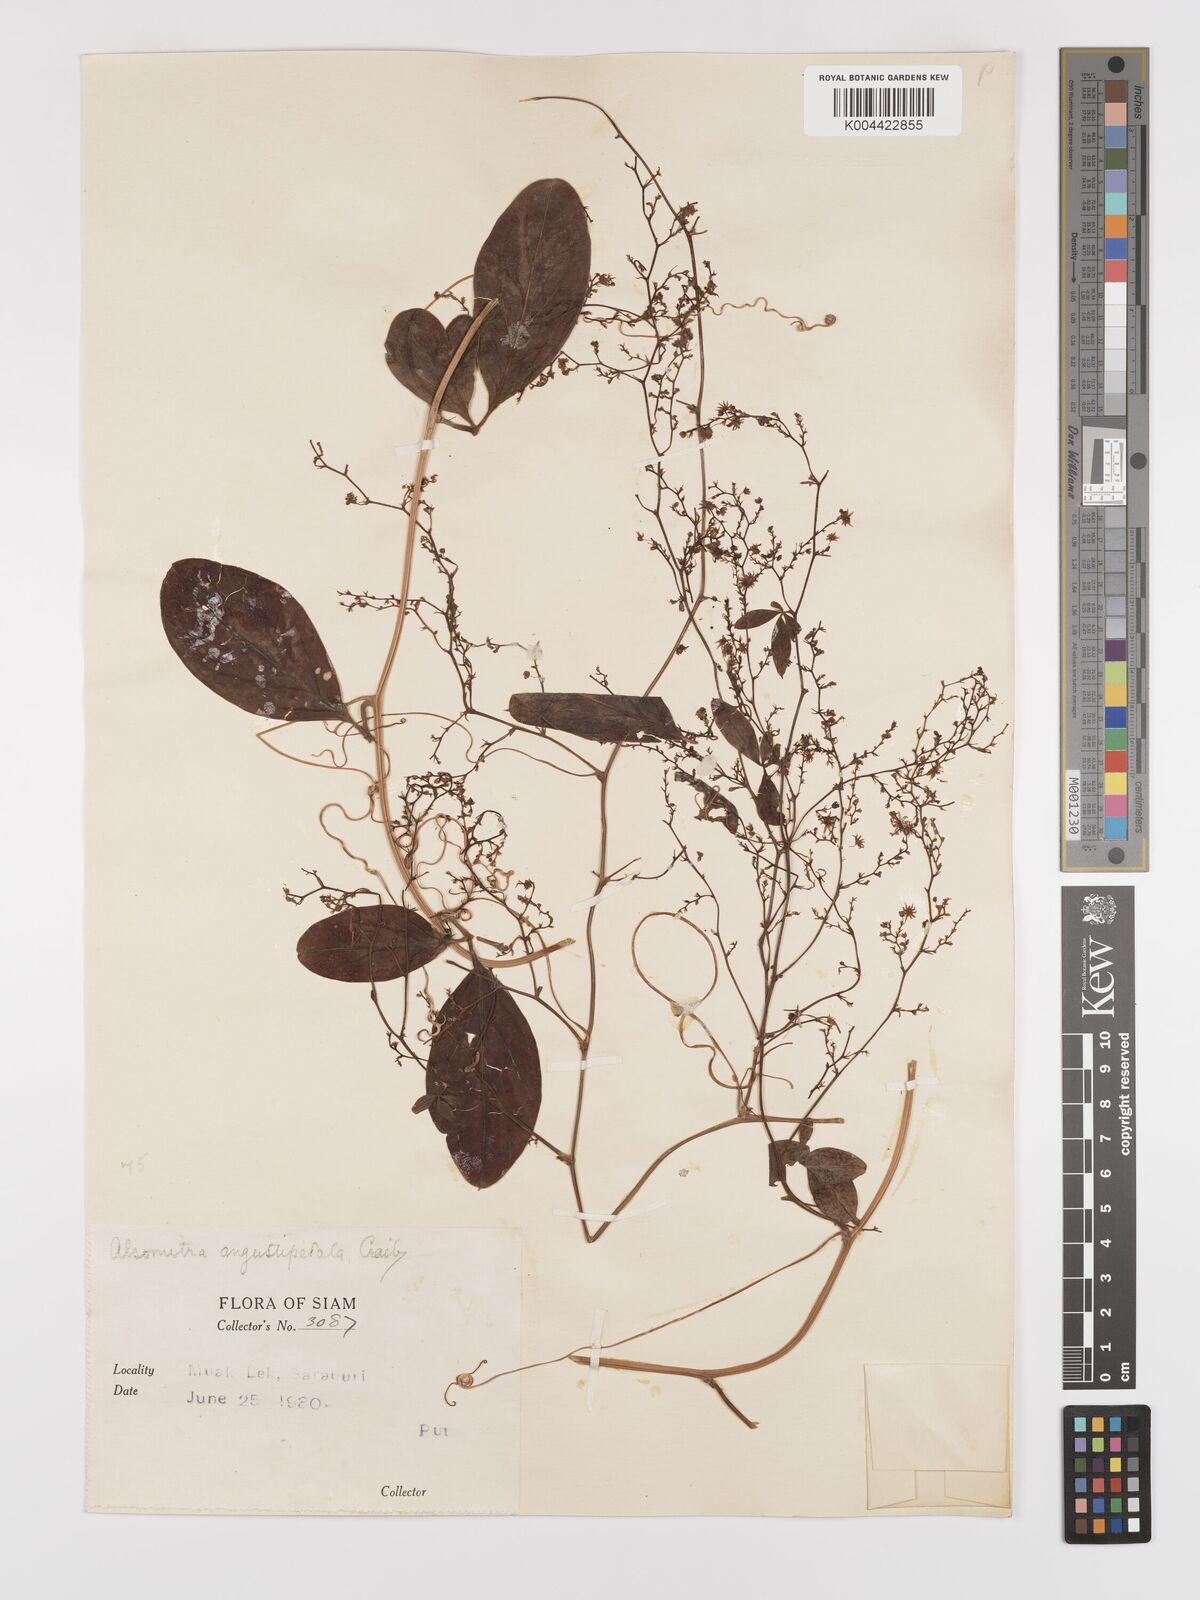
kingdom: Plantae
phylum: Tracheophyta
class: Magnoliopsida
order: Cucurbitales
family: Cucurbitaceae
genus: Neoalsomitra
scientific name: Neoalsomitra angustipetala
